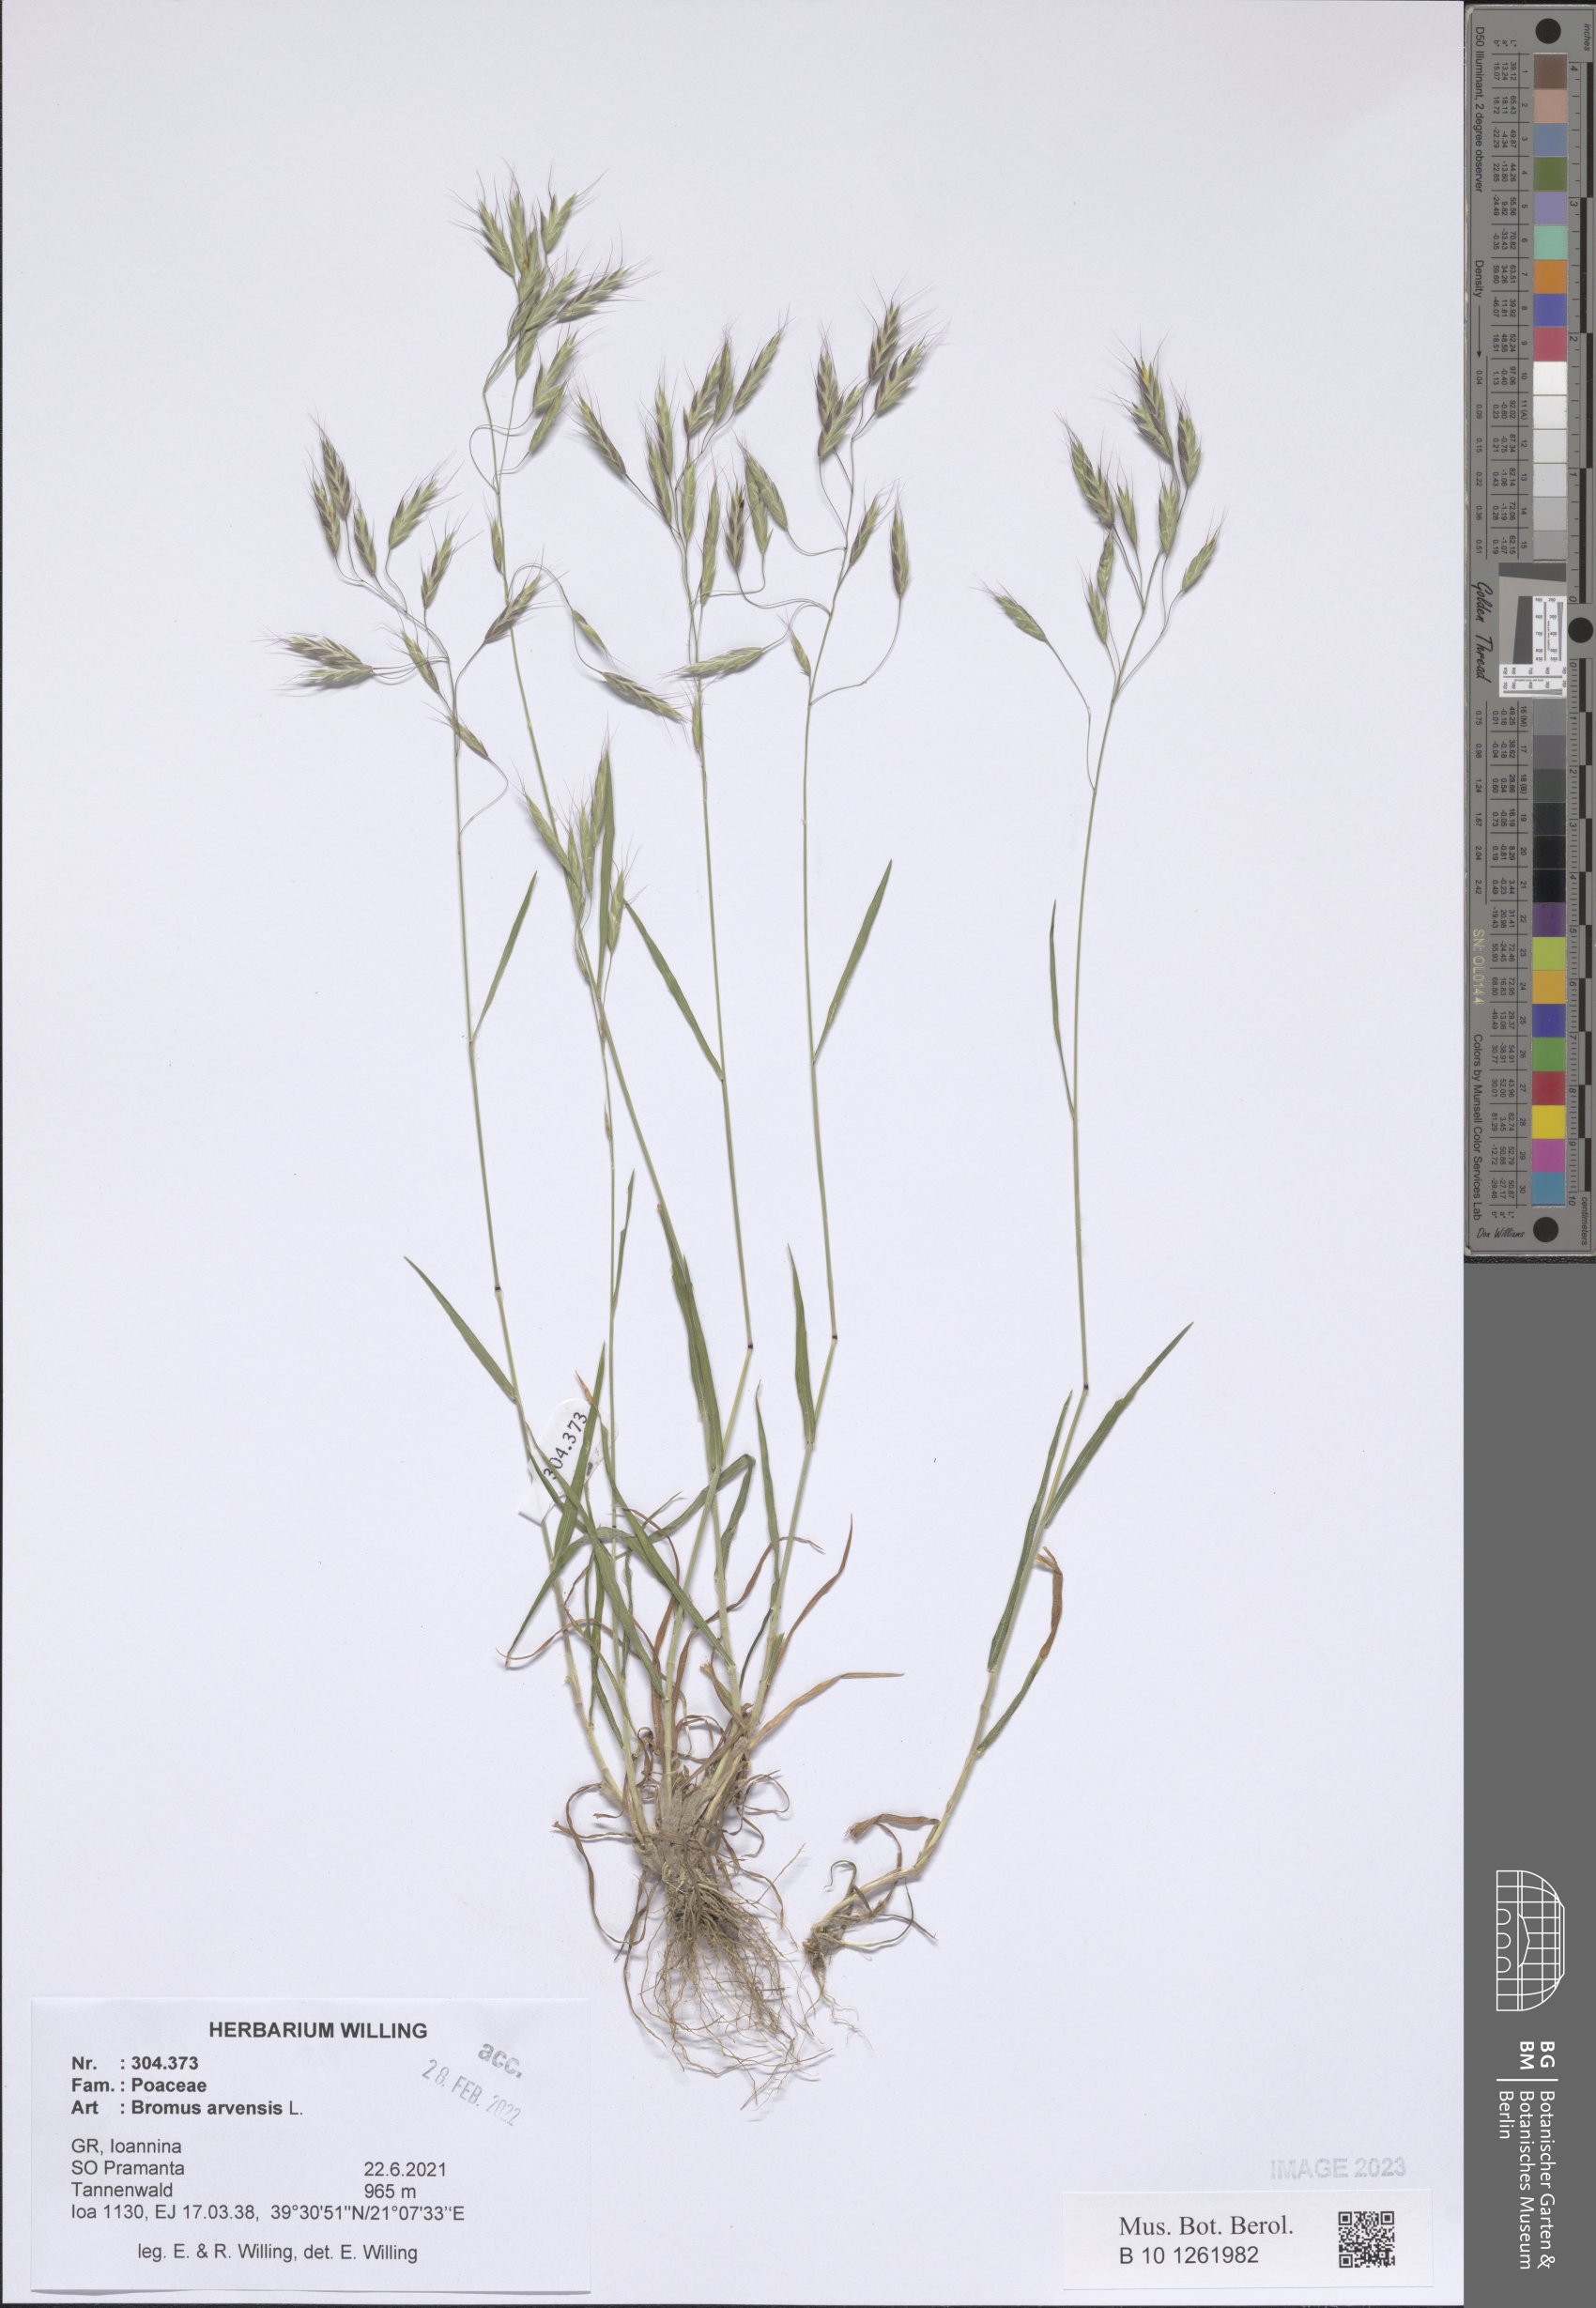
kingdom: Plantae
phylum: Tracheophyta
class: Liliopsida
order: Poales
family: Poaceae
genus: Bromus
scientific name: Bromus arvensis
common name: Field brome
